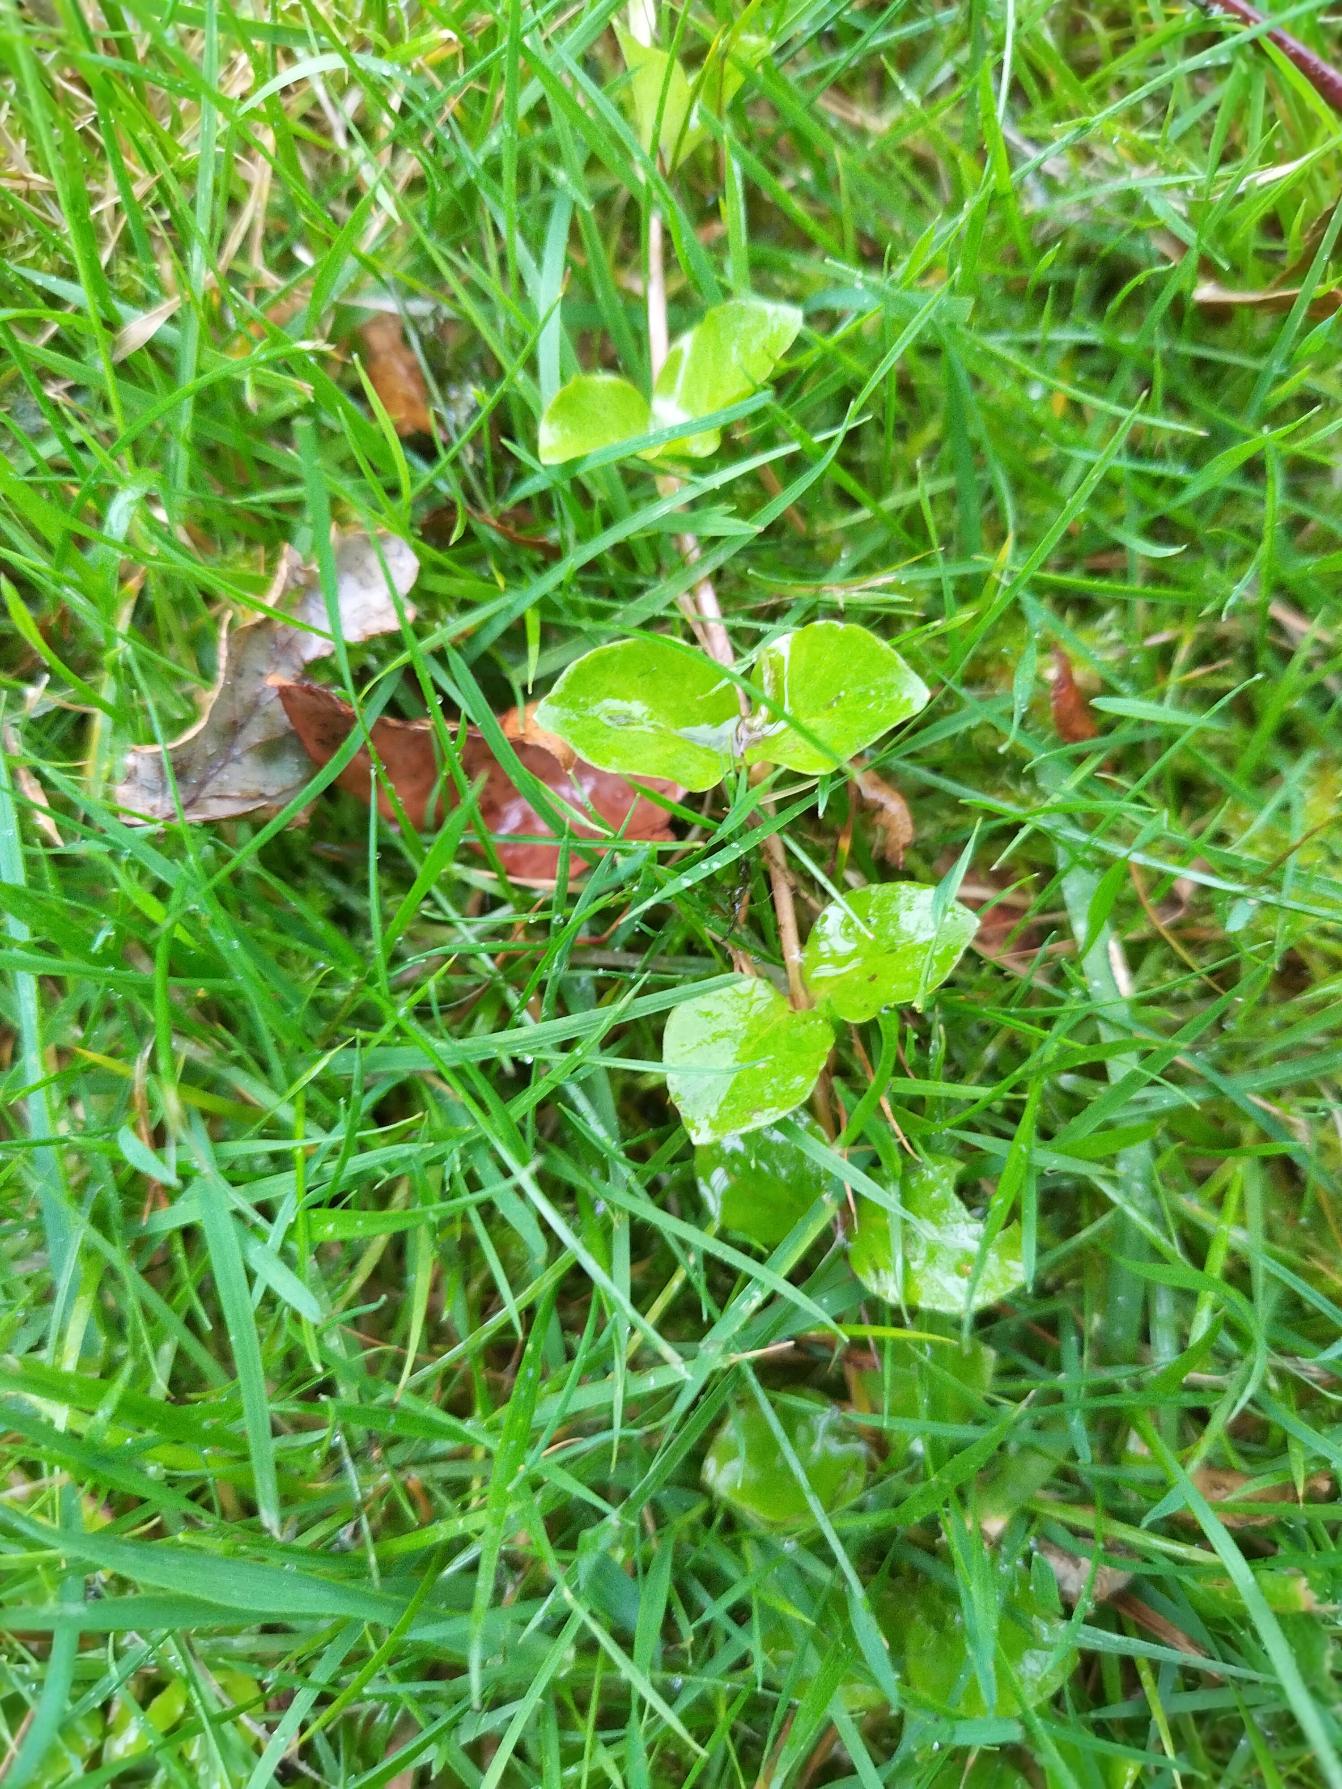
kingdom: Plantae
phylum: Tracheophyta
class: Magnoliopsida
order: Ericales
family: Primulaceae
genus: Lysimachia
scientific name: Lysimachia nummularia
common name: Pengebladet fredløs
